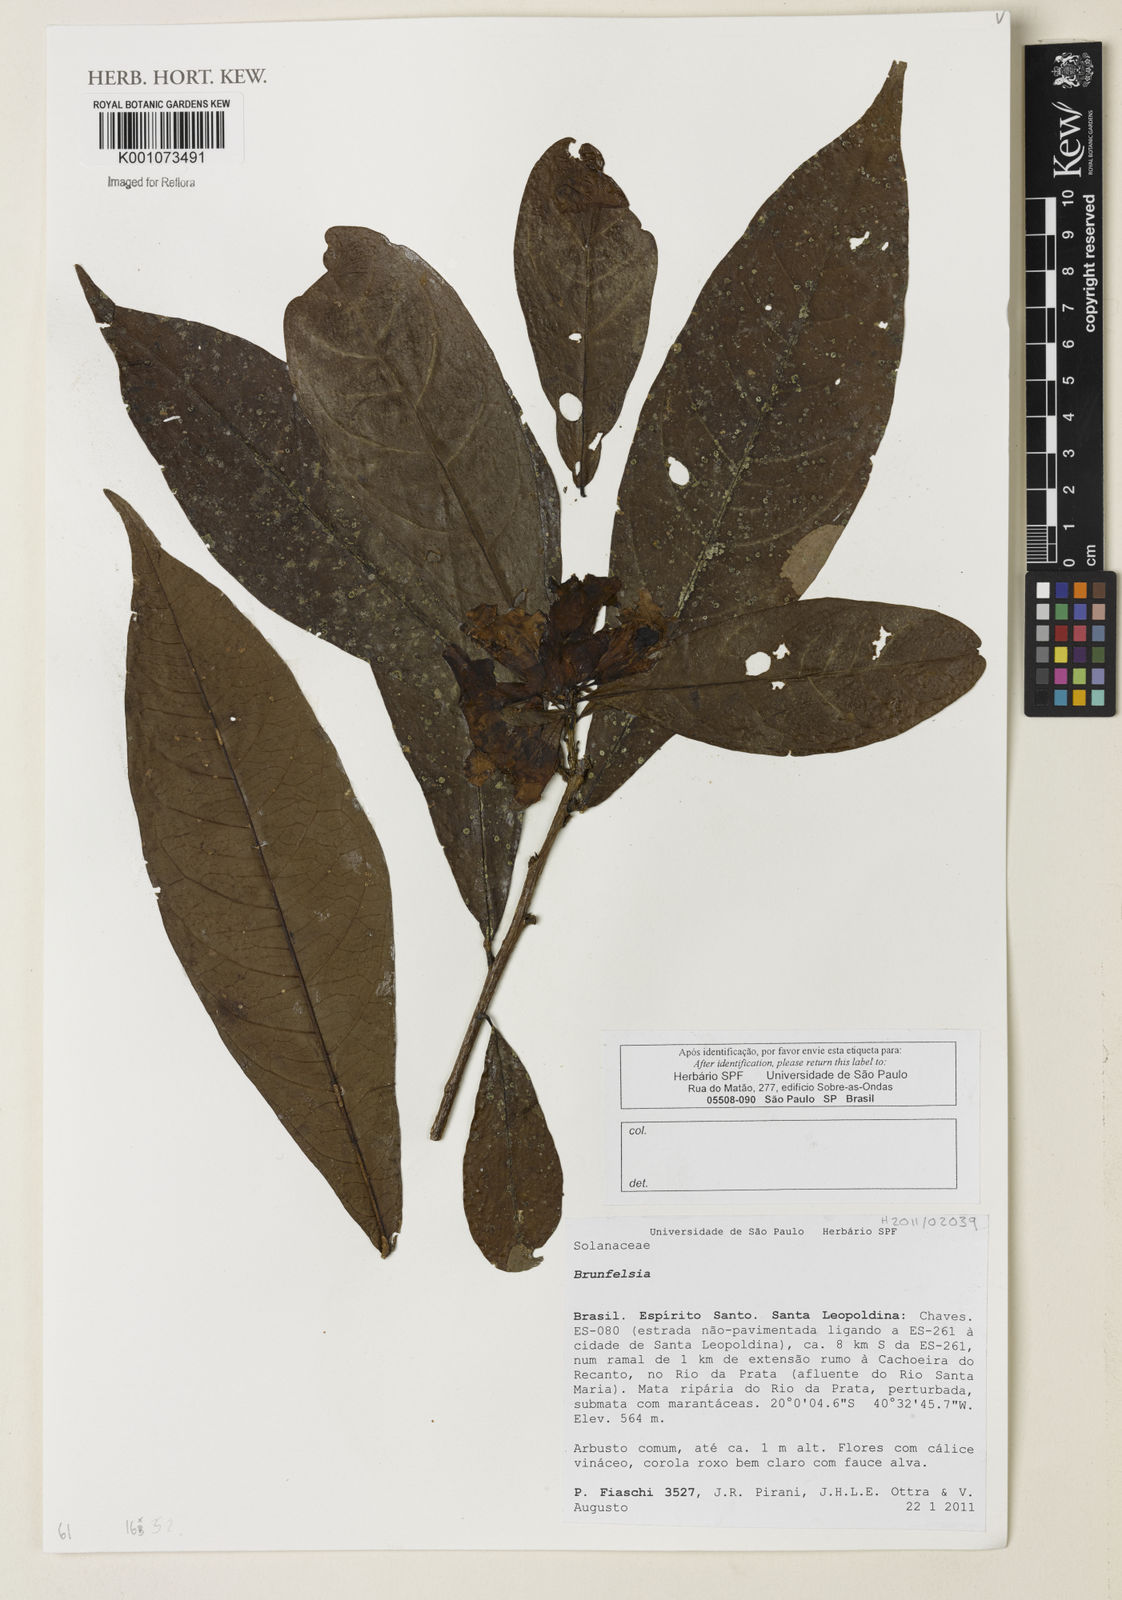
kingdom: Plantae
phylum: Tracheophyta
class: Magnoliopsida
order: Solanales
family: Solanaceae
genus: Brunfelsia
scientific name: Brunfelsia
